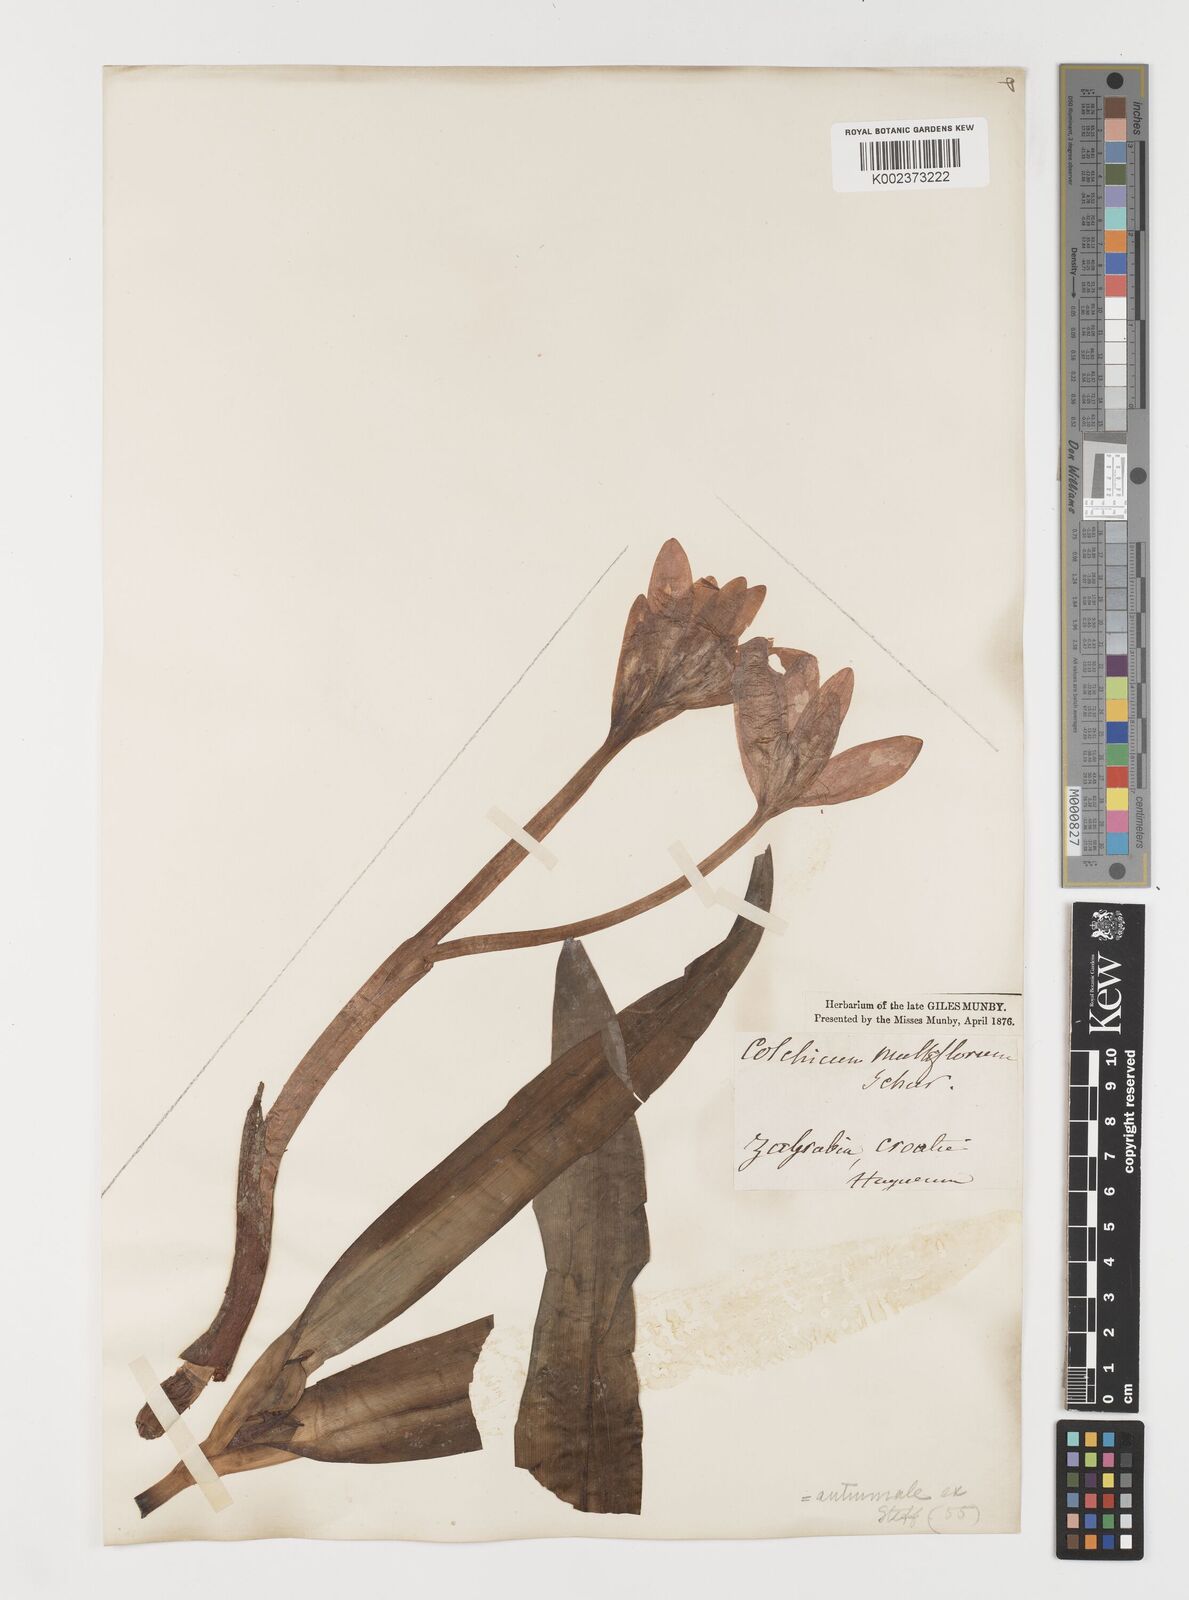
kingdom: Plantae
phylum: Tracheophyta
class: Liliopsida
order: Liliales
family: Colchicaceae
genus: Colchicum
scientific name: Colchicum autumnale
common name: Autumn crocus
